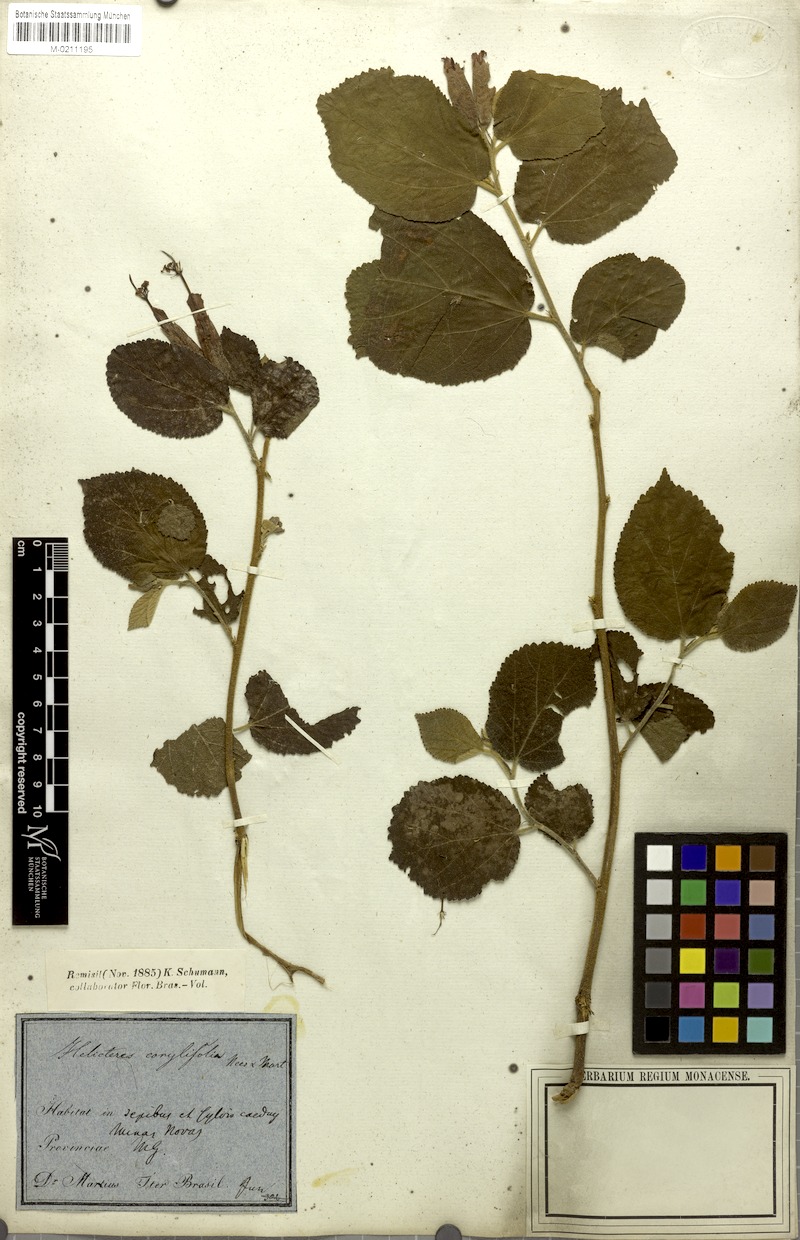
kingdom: Plantae
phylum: Tracheophyta
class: Magnoliopsida
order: Malvales
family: Malvaceae
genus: Helicteres
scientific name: Helicteres corylifolia
